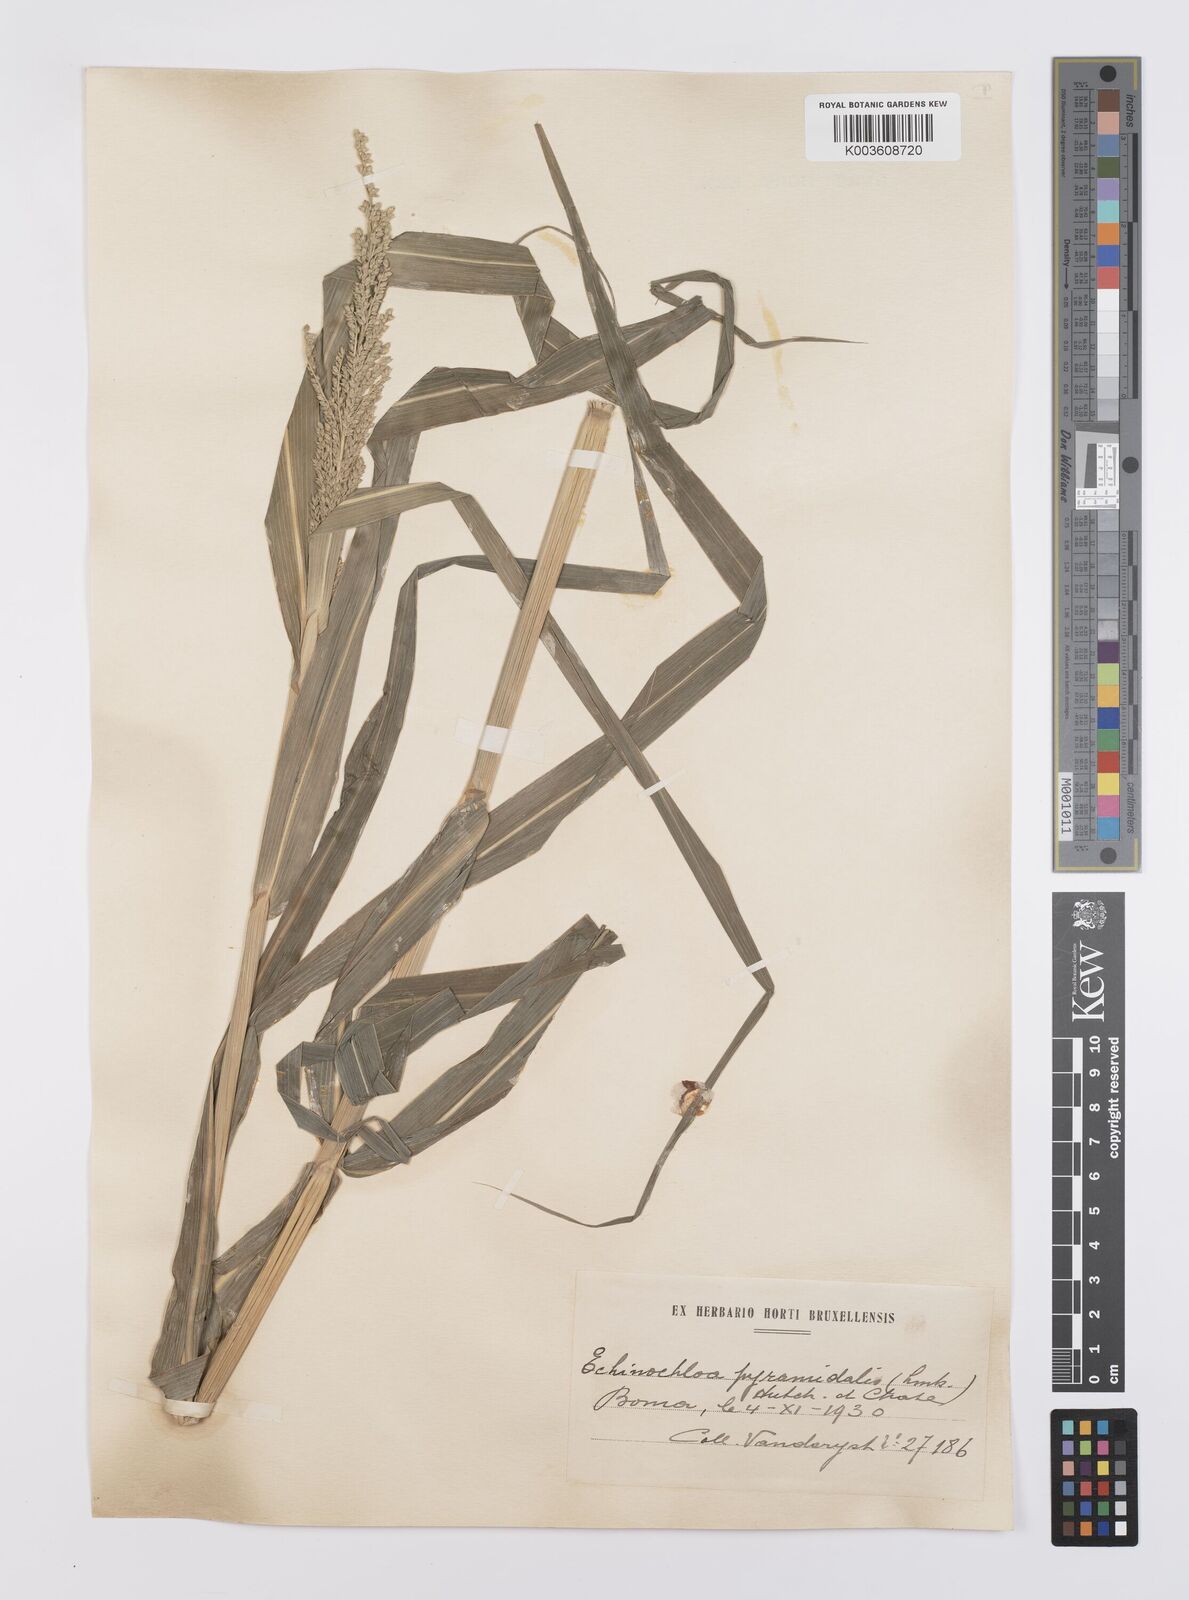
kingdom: Plantae
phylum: Tracheophyta
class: Liliopsida
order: Poales
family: Poaceae
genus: Echinochloa
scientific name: Echinochloa pyramidalis
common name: Antelope grass
